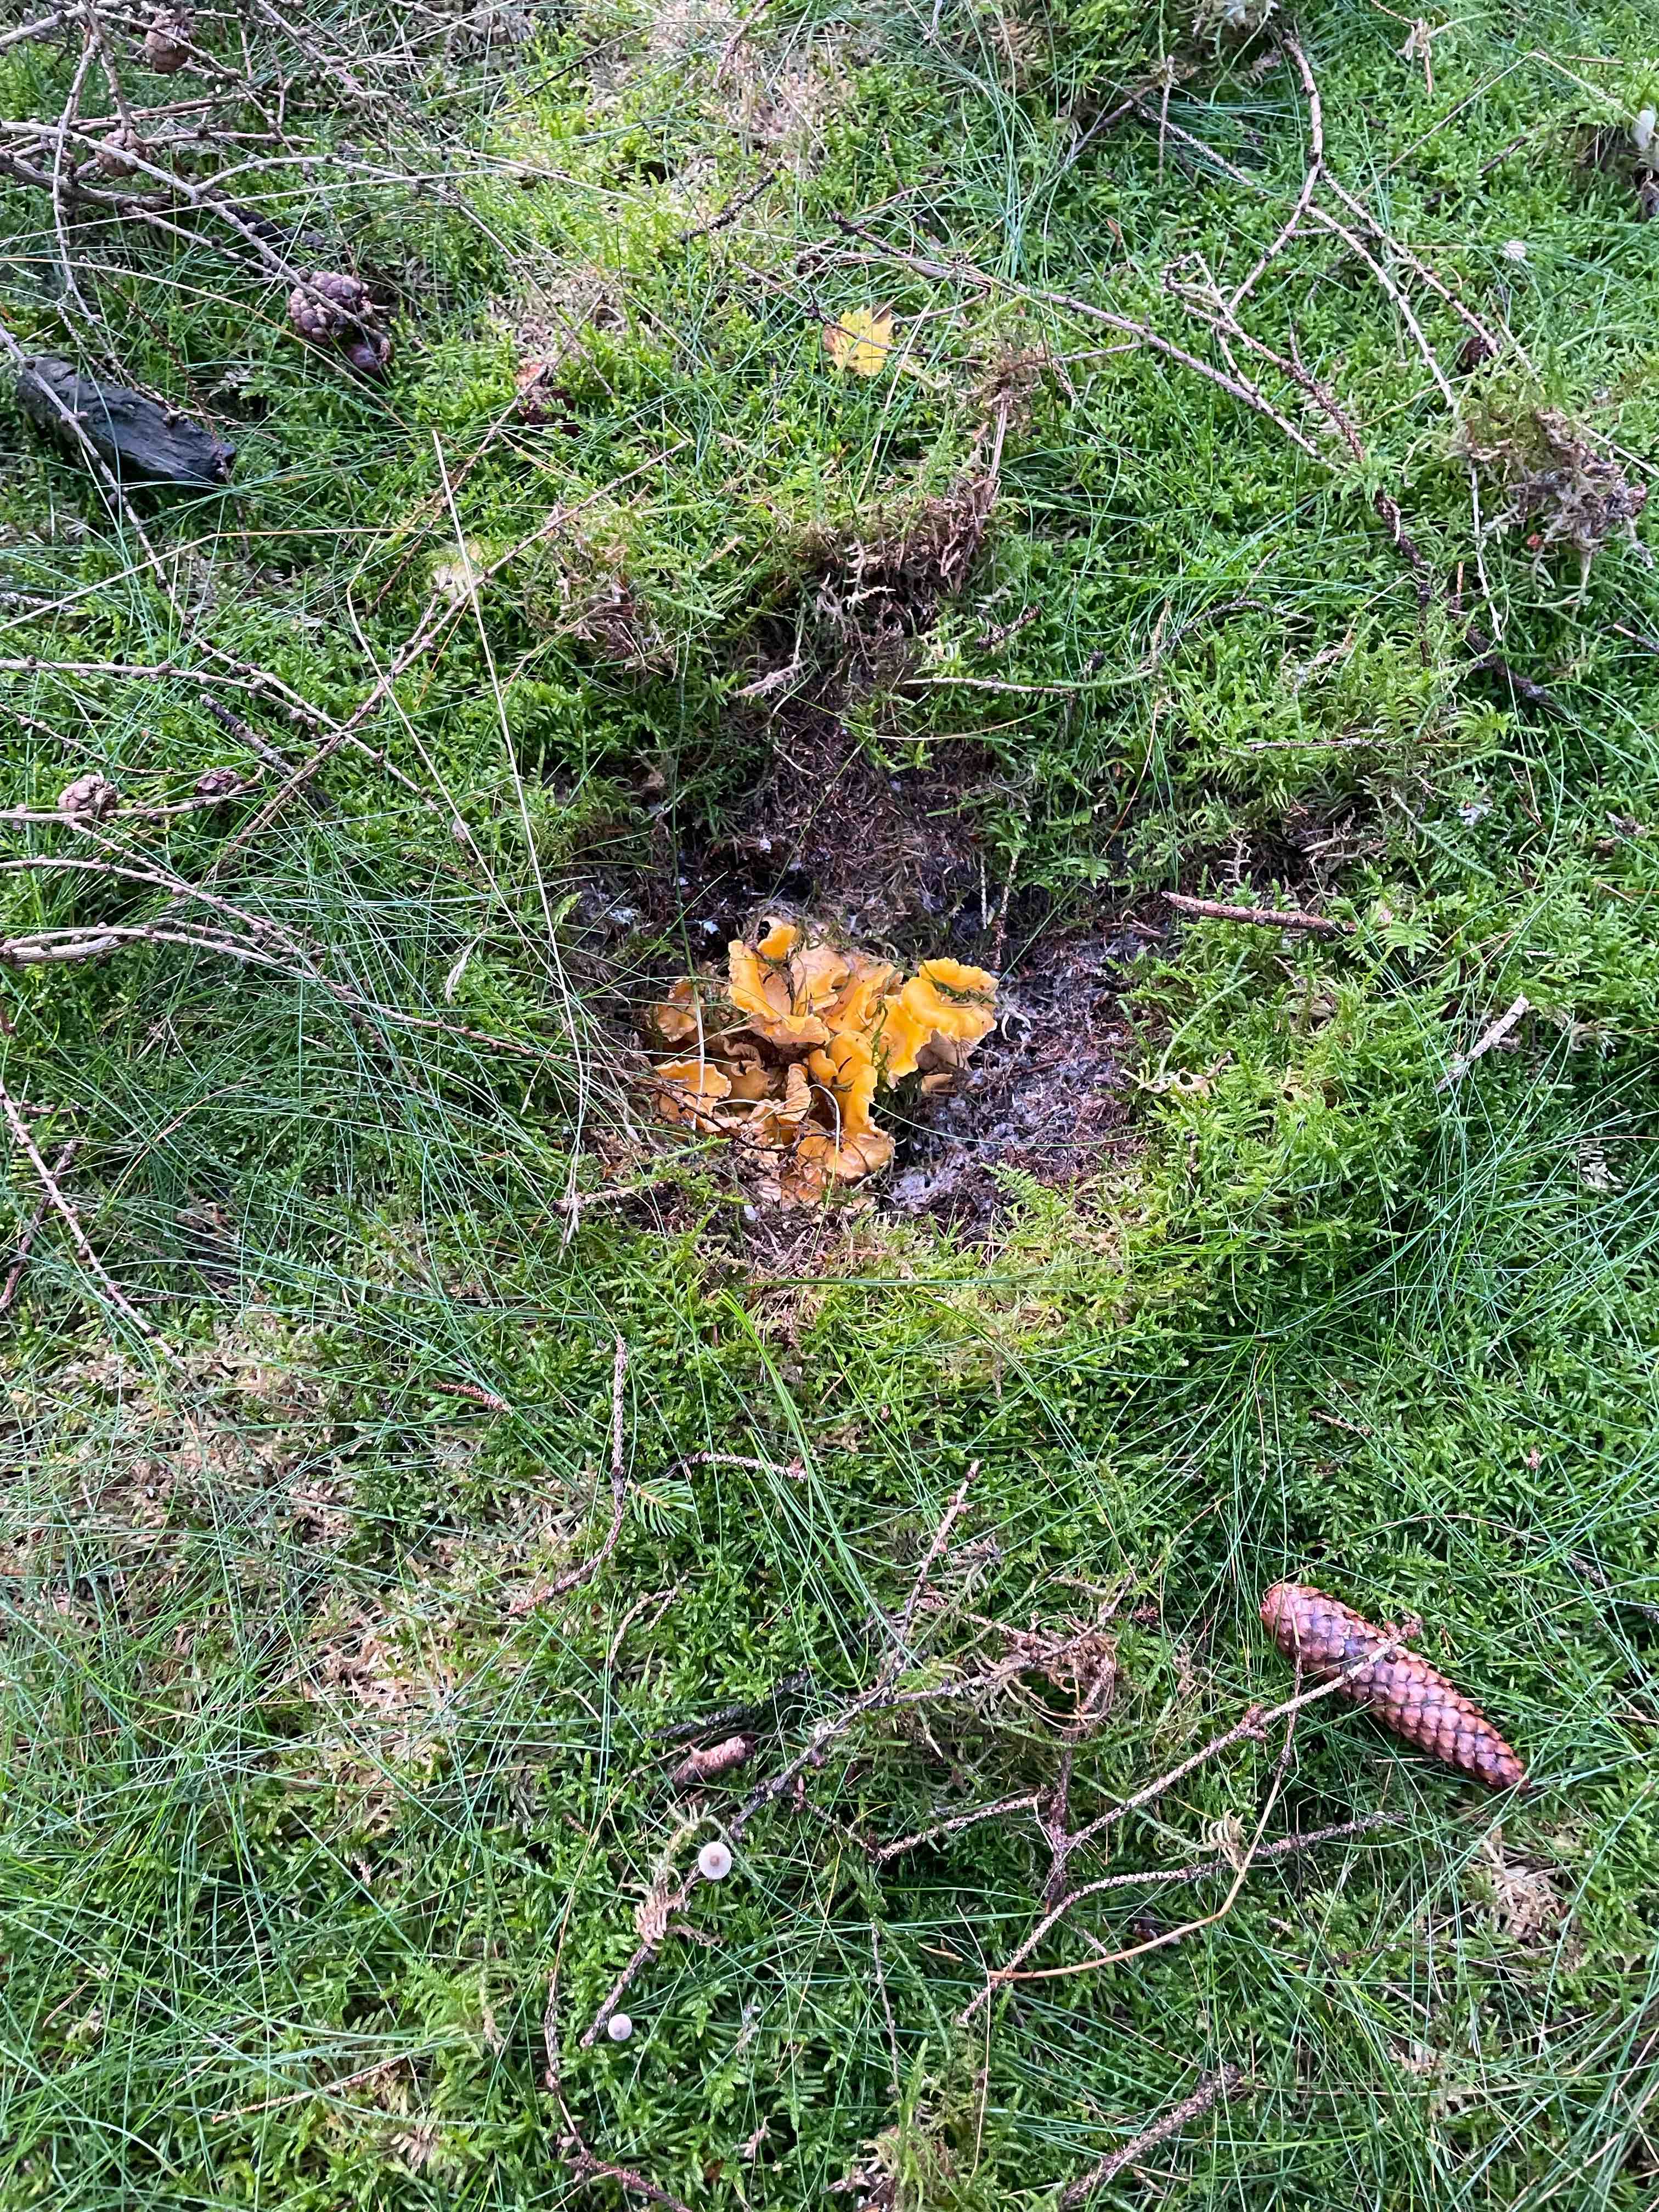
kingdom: Fungi
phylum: Basidiomycota
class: Agaricomycetes
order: Cantharellales
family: Hydnaceae
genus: Cantharellus
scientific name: Cantharellus cibarius
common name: almindelig kantarel
